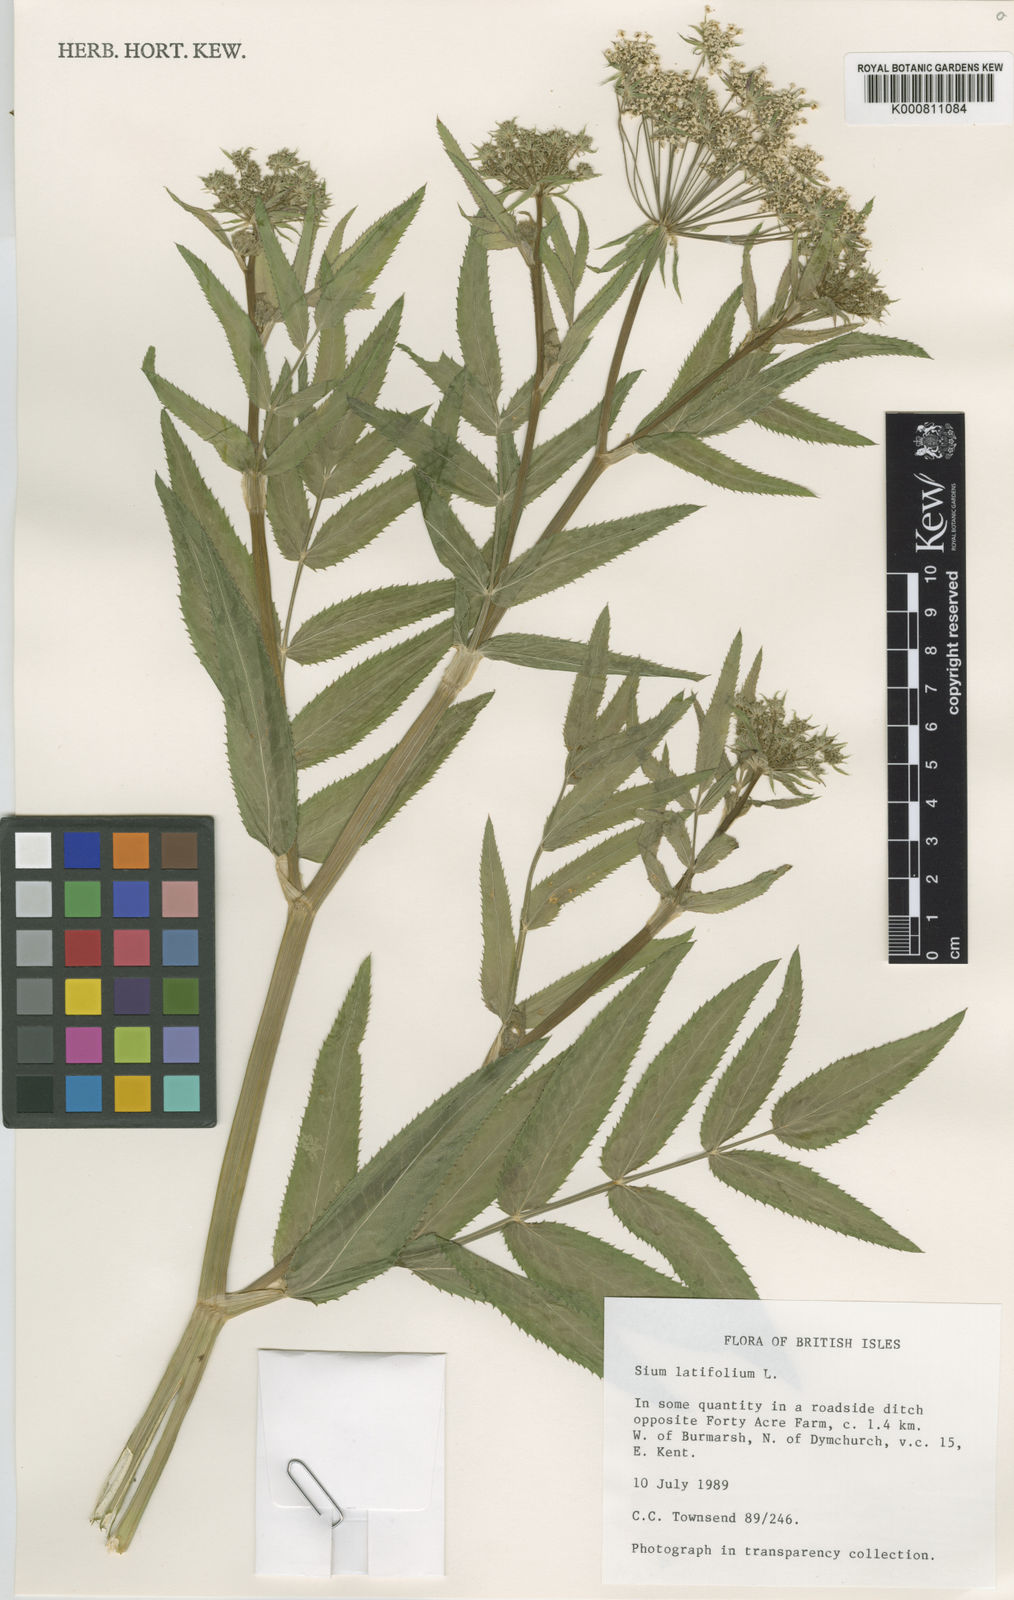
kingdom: Plantae
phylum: Tracheophyta
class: Magnoliopsida
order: Apiales
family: Apiaceae
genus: Sium
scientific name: Sium latifolium
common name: Greater water-parsnip
